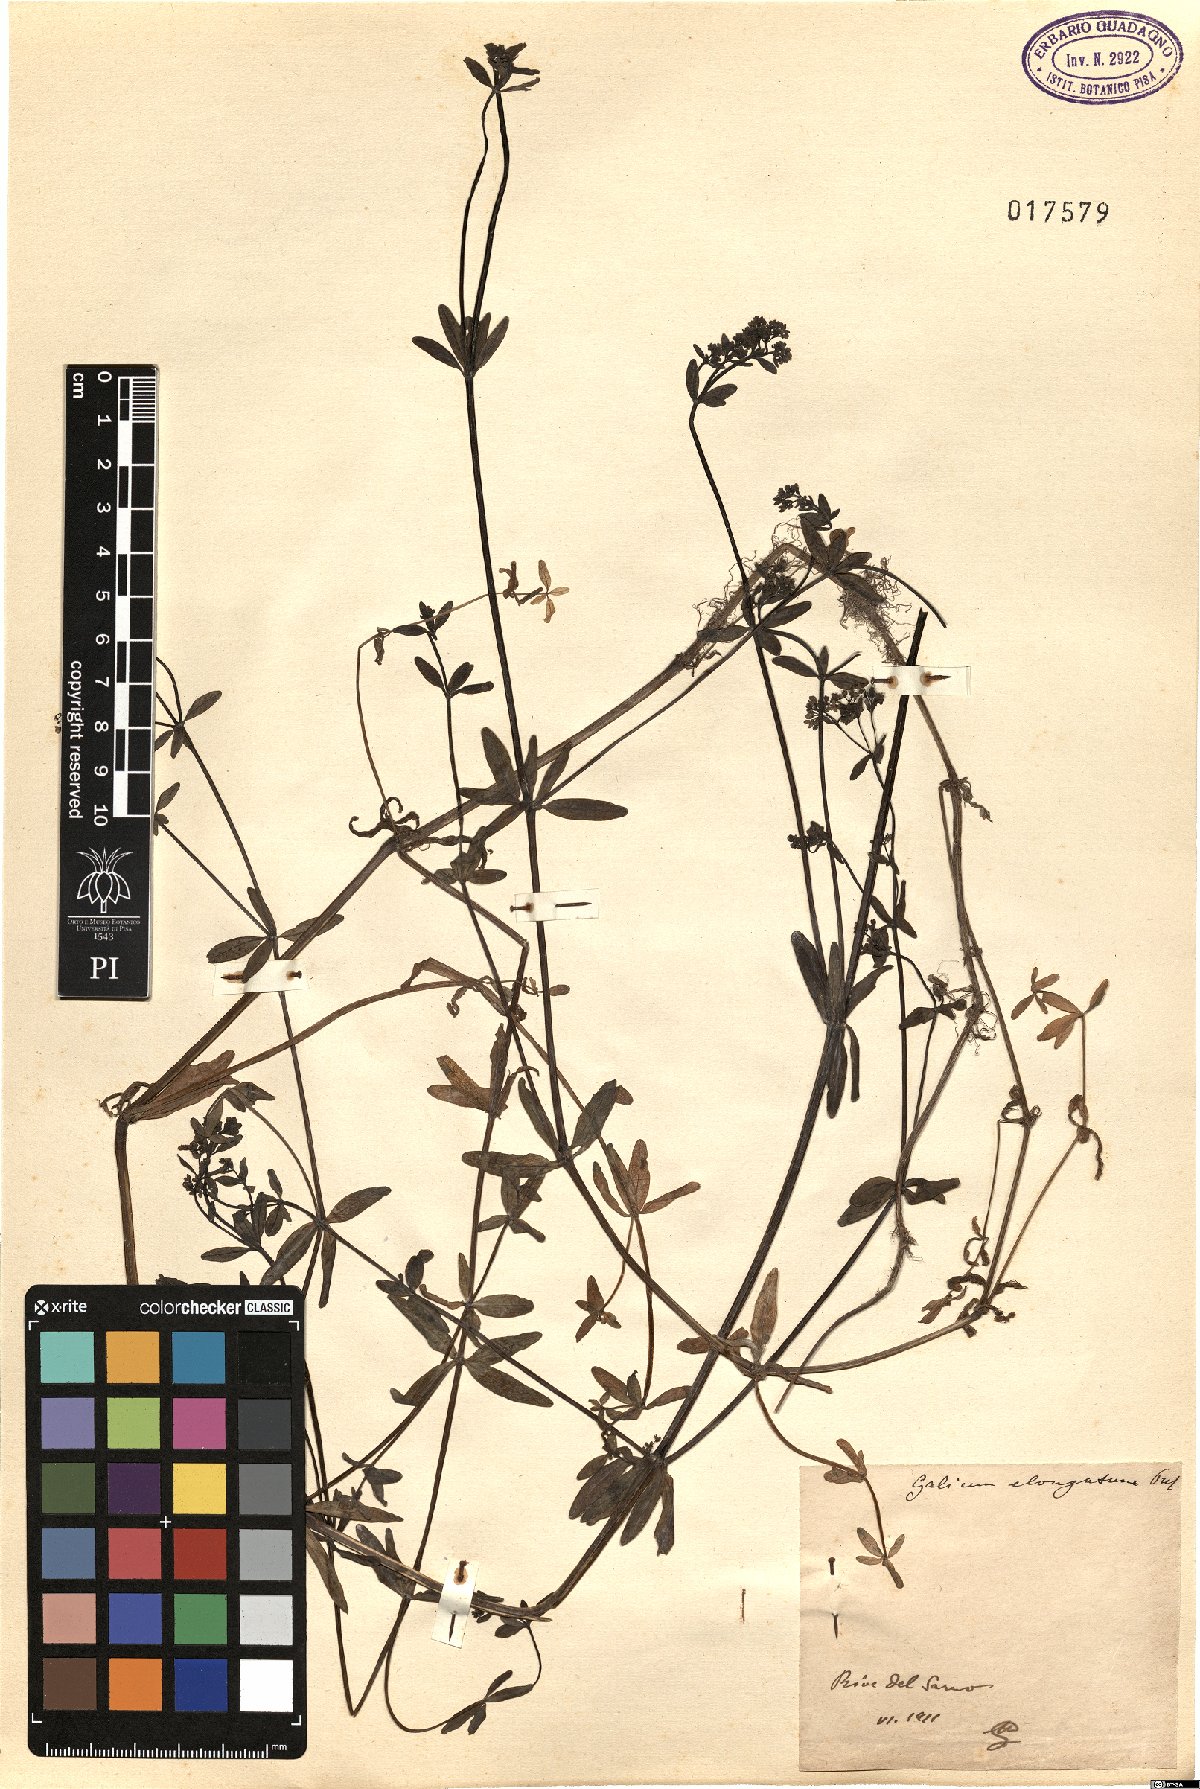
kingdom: Plantae
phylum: Tracheophyta
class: Magnoliopsida
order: Gentianales
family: Rubiaceae
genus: Galium
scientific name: Galium elongatum
